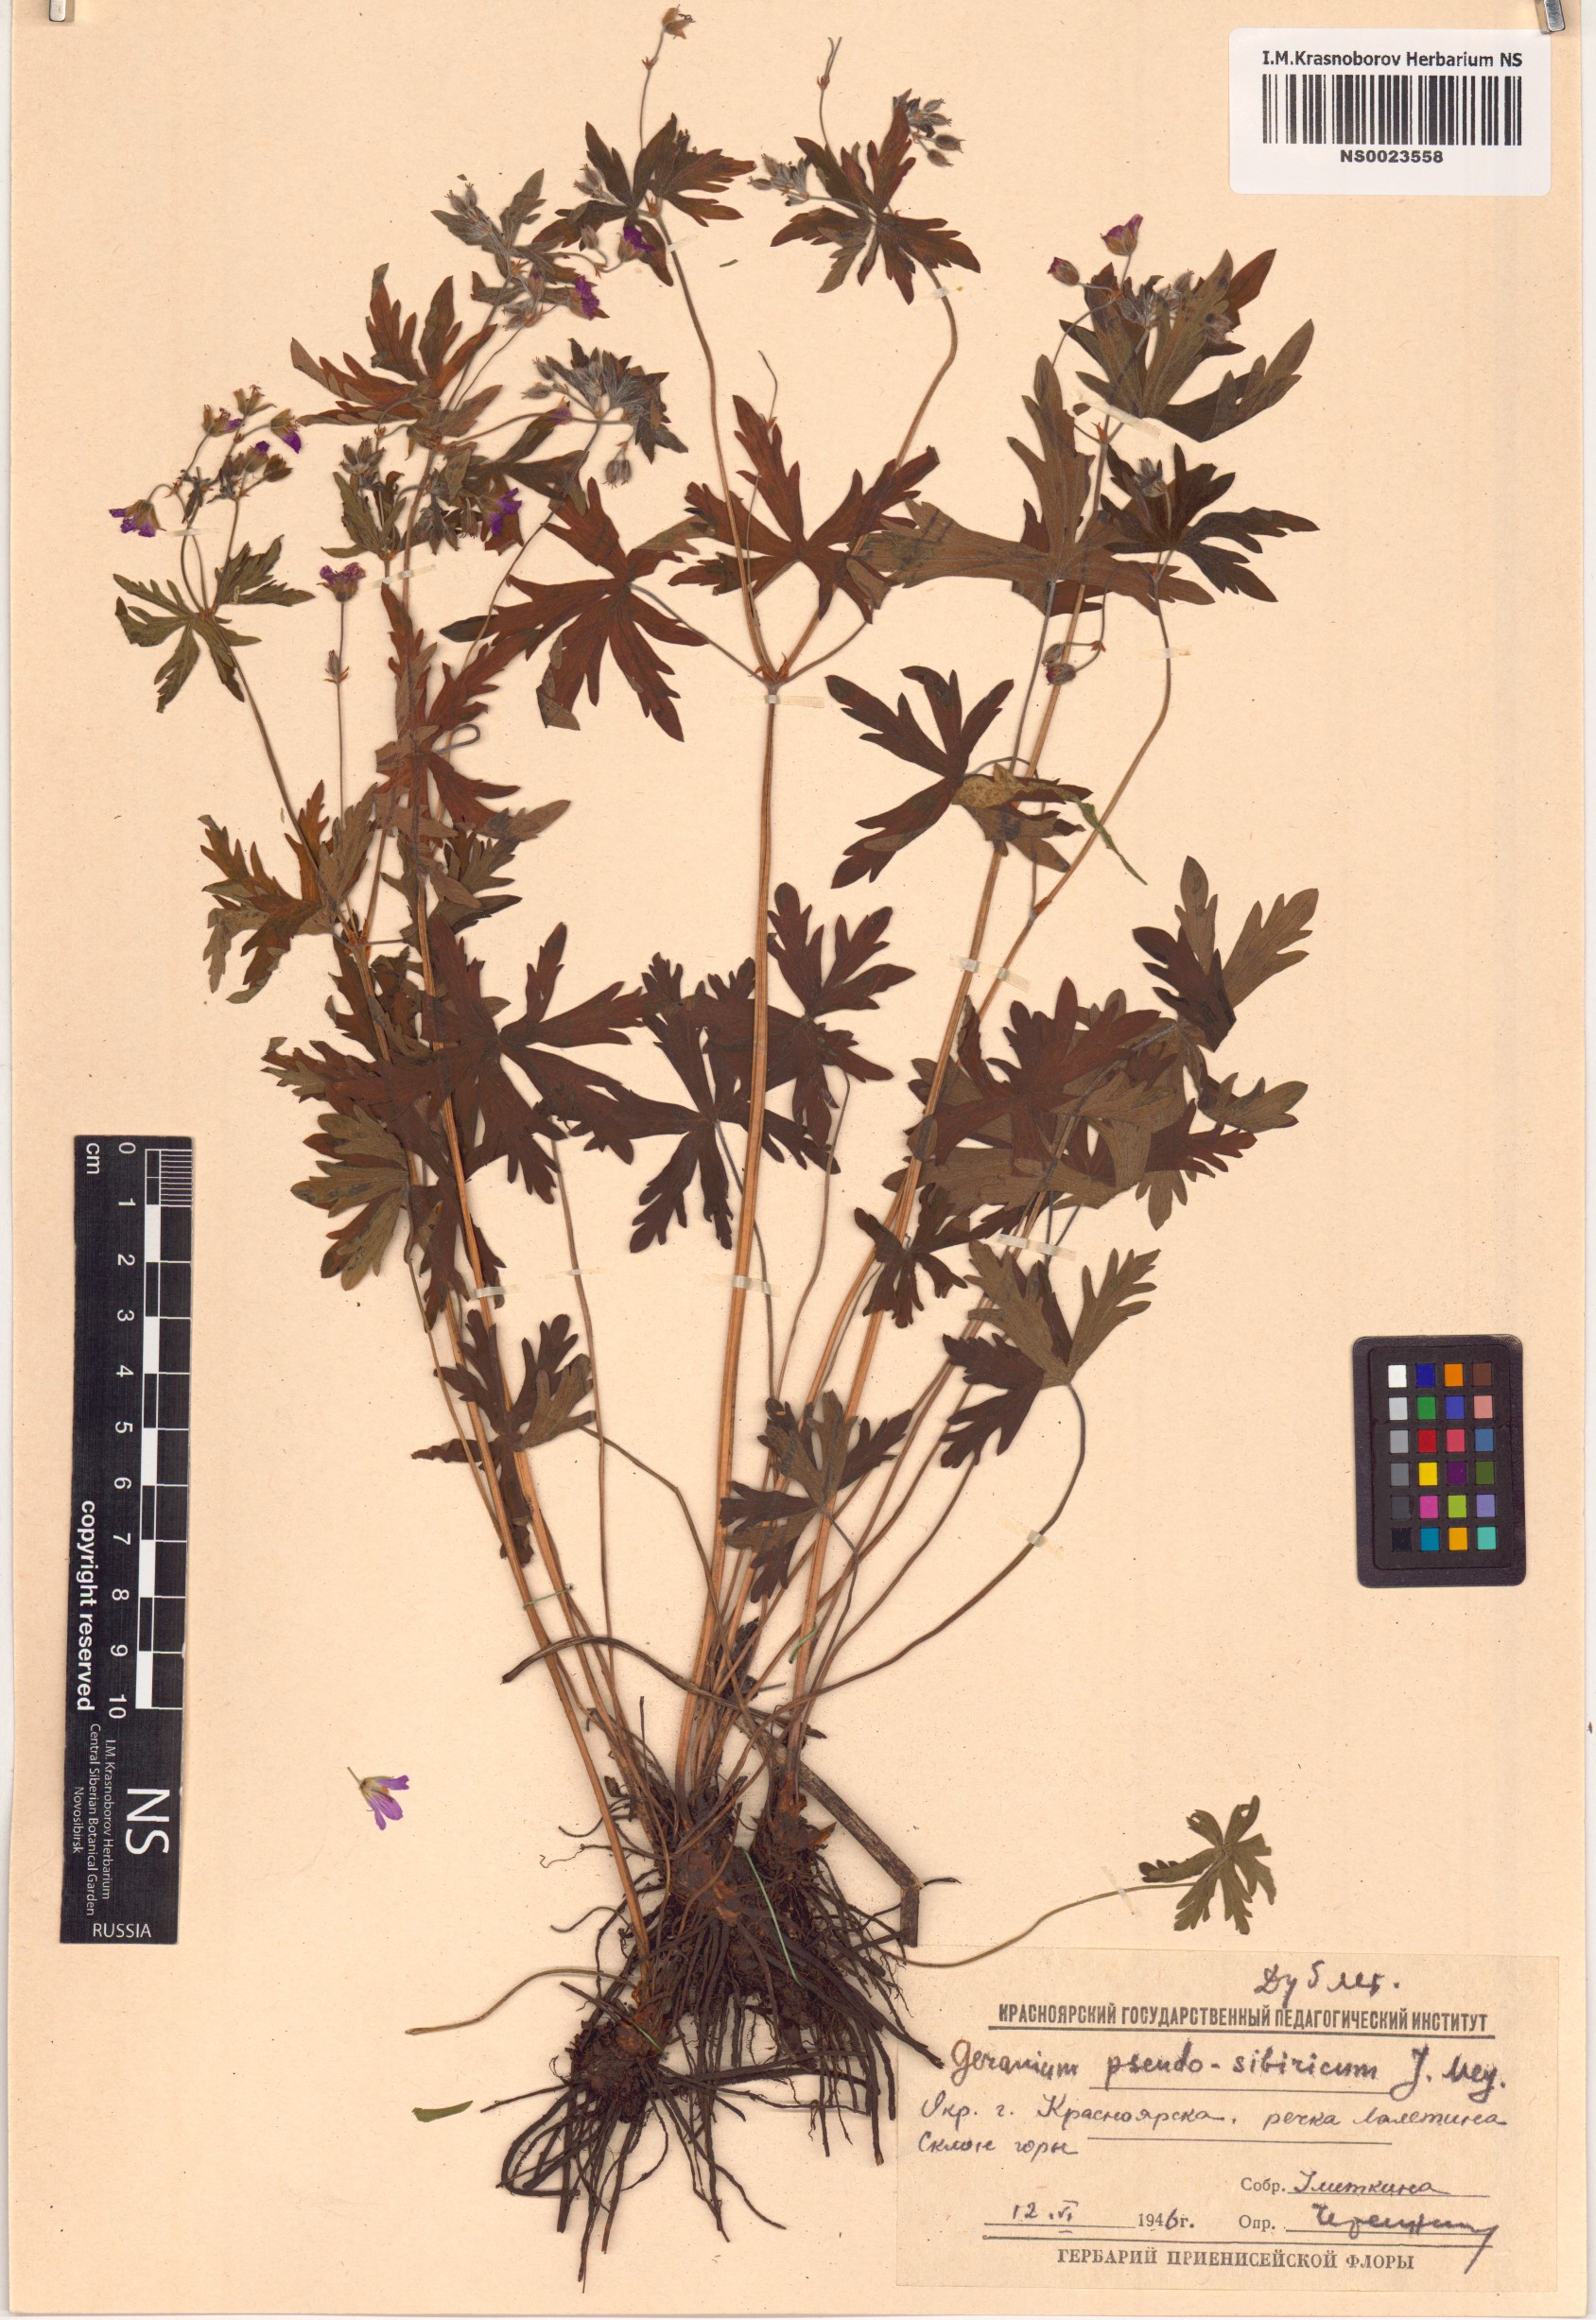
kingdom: Plantae
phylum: Tracheophyta
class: Magnoliopsida
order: Geraniales
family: Geraniaceae
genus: Geranium
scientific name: Geranium pseudosibiricum
